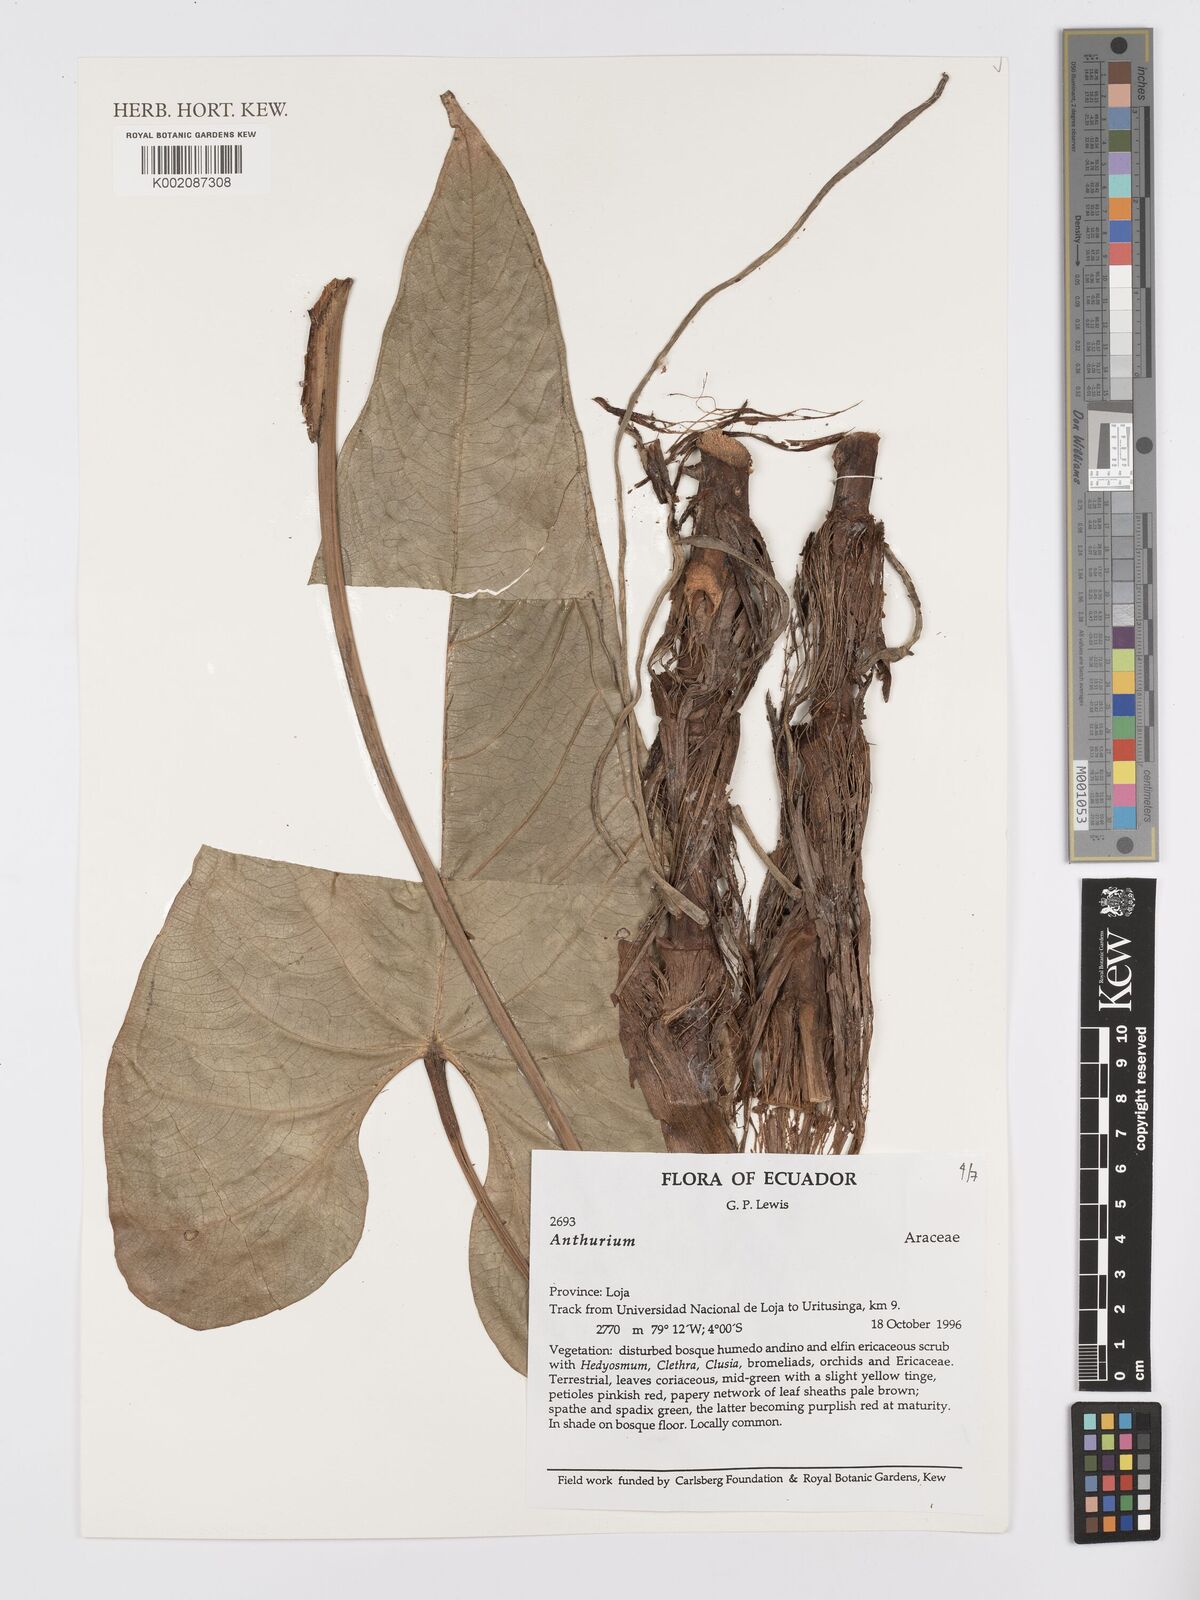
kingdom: Plantae
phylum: Tracheophyta
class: Liliopsida
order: Alismatales
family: Araceae
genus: Anthurium
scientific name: Anthurium
